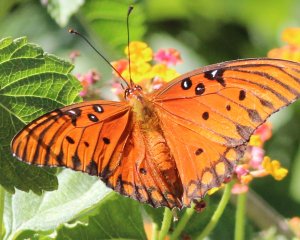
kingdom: Animalia
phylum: Arthropoda
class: Insecta
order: Lepidoptera
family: Nymphalidae
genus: Dione
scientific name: Dione vanillae
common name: Gulf Fritillary
